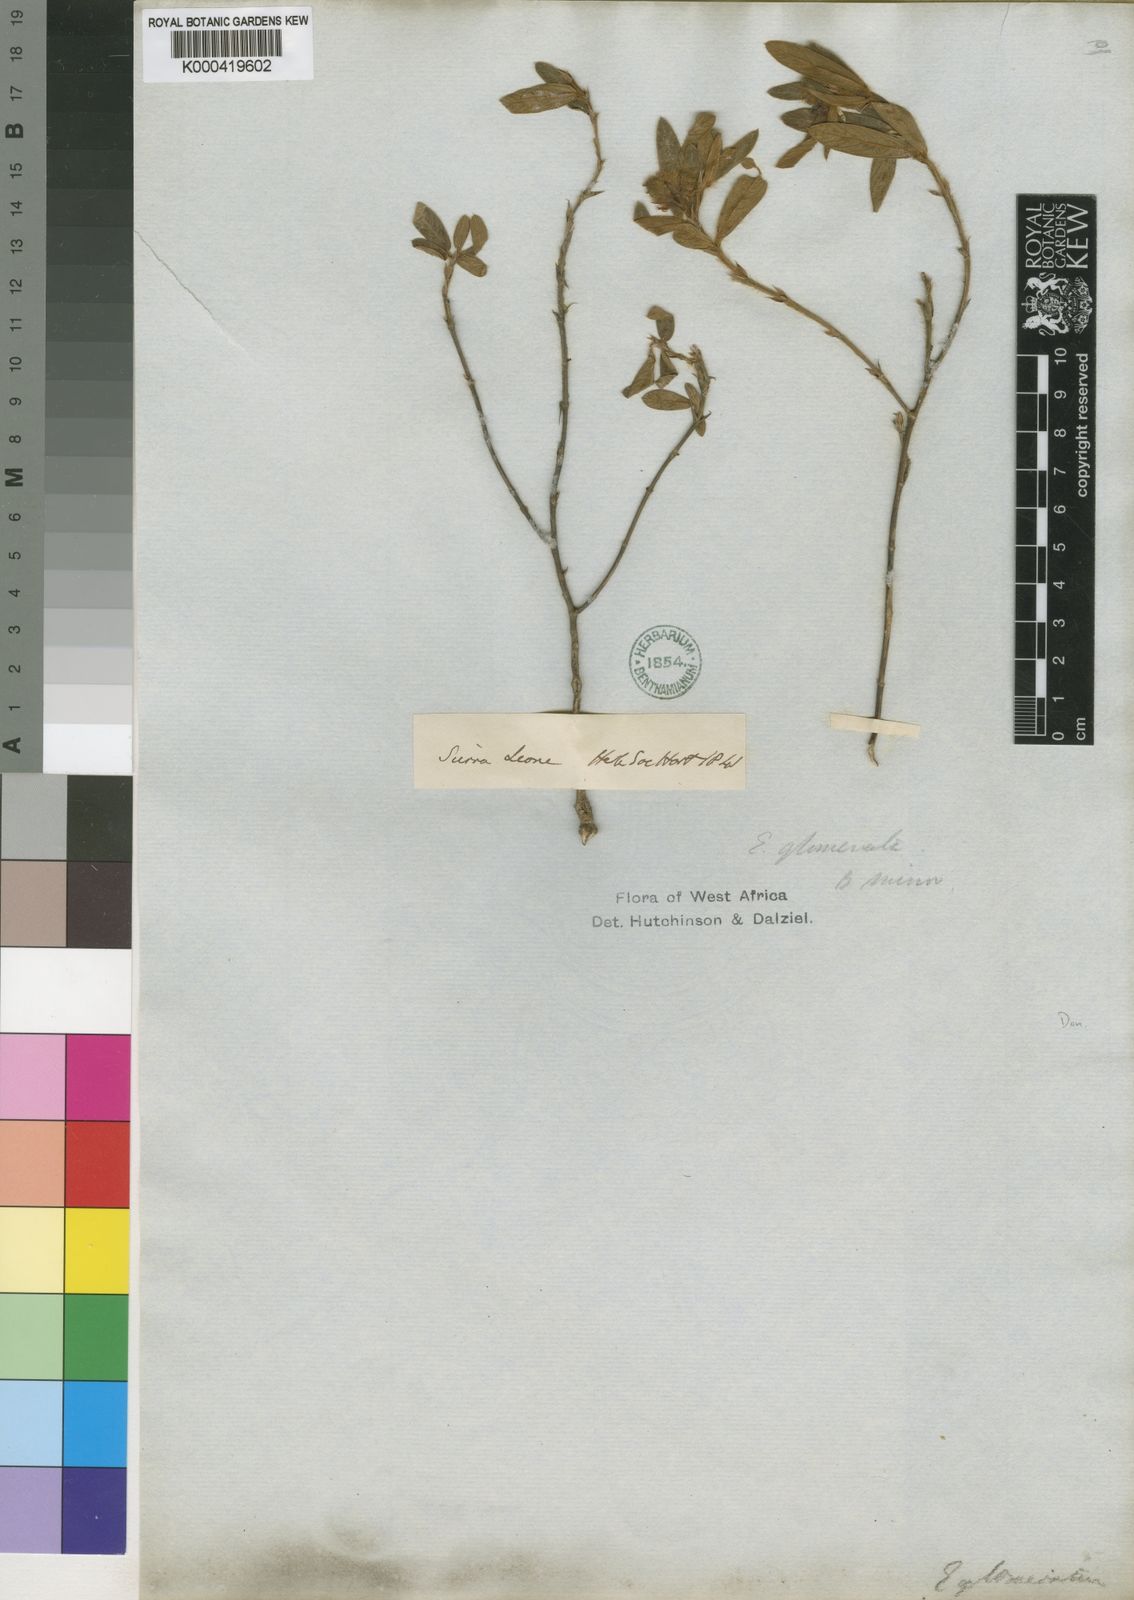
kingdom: Plantae
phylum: Tracheophyta
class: Magnoliopsida
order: Fabales
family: Fabaceae
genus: Eriosema
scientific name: Eriosema glomeratum
